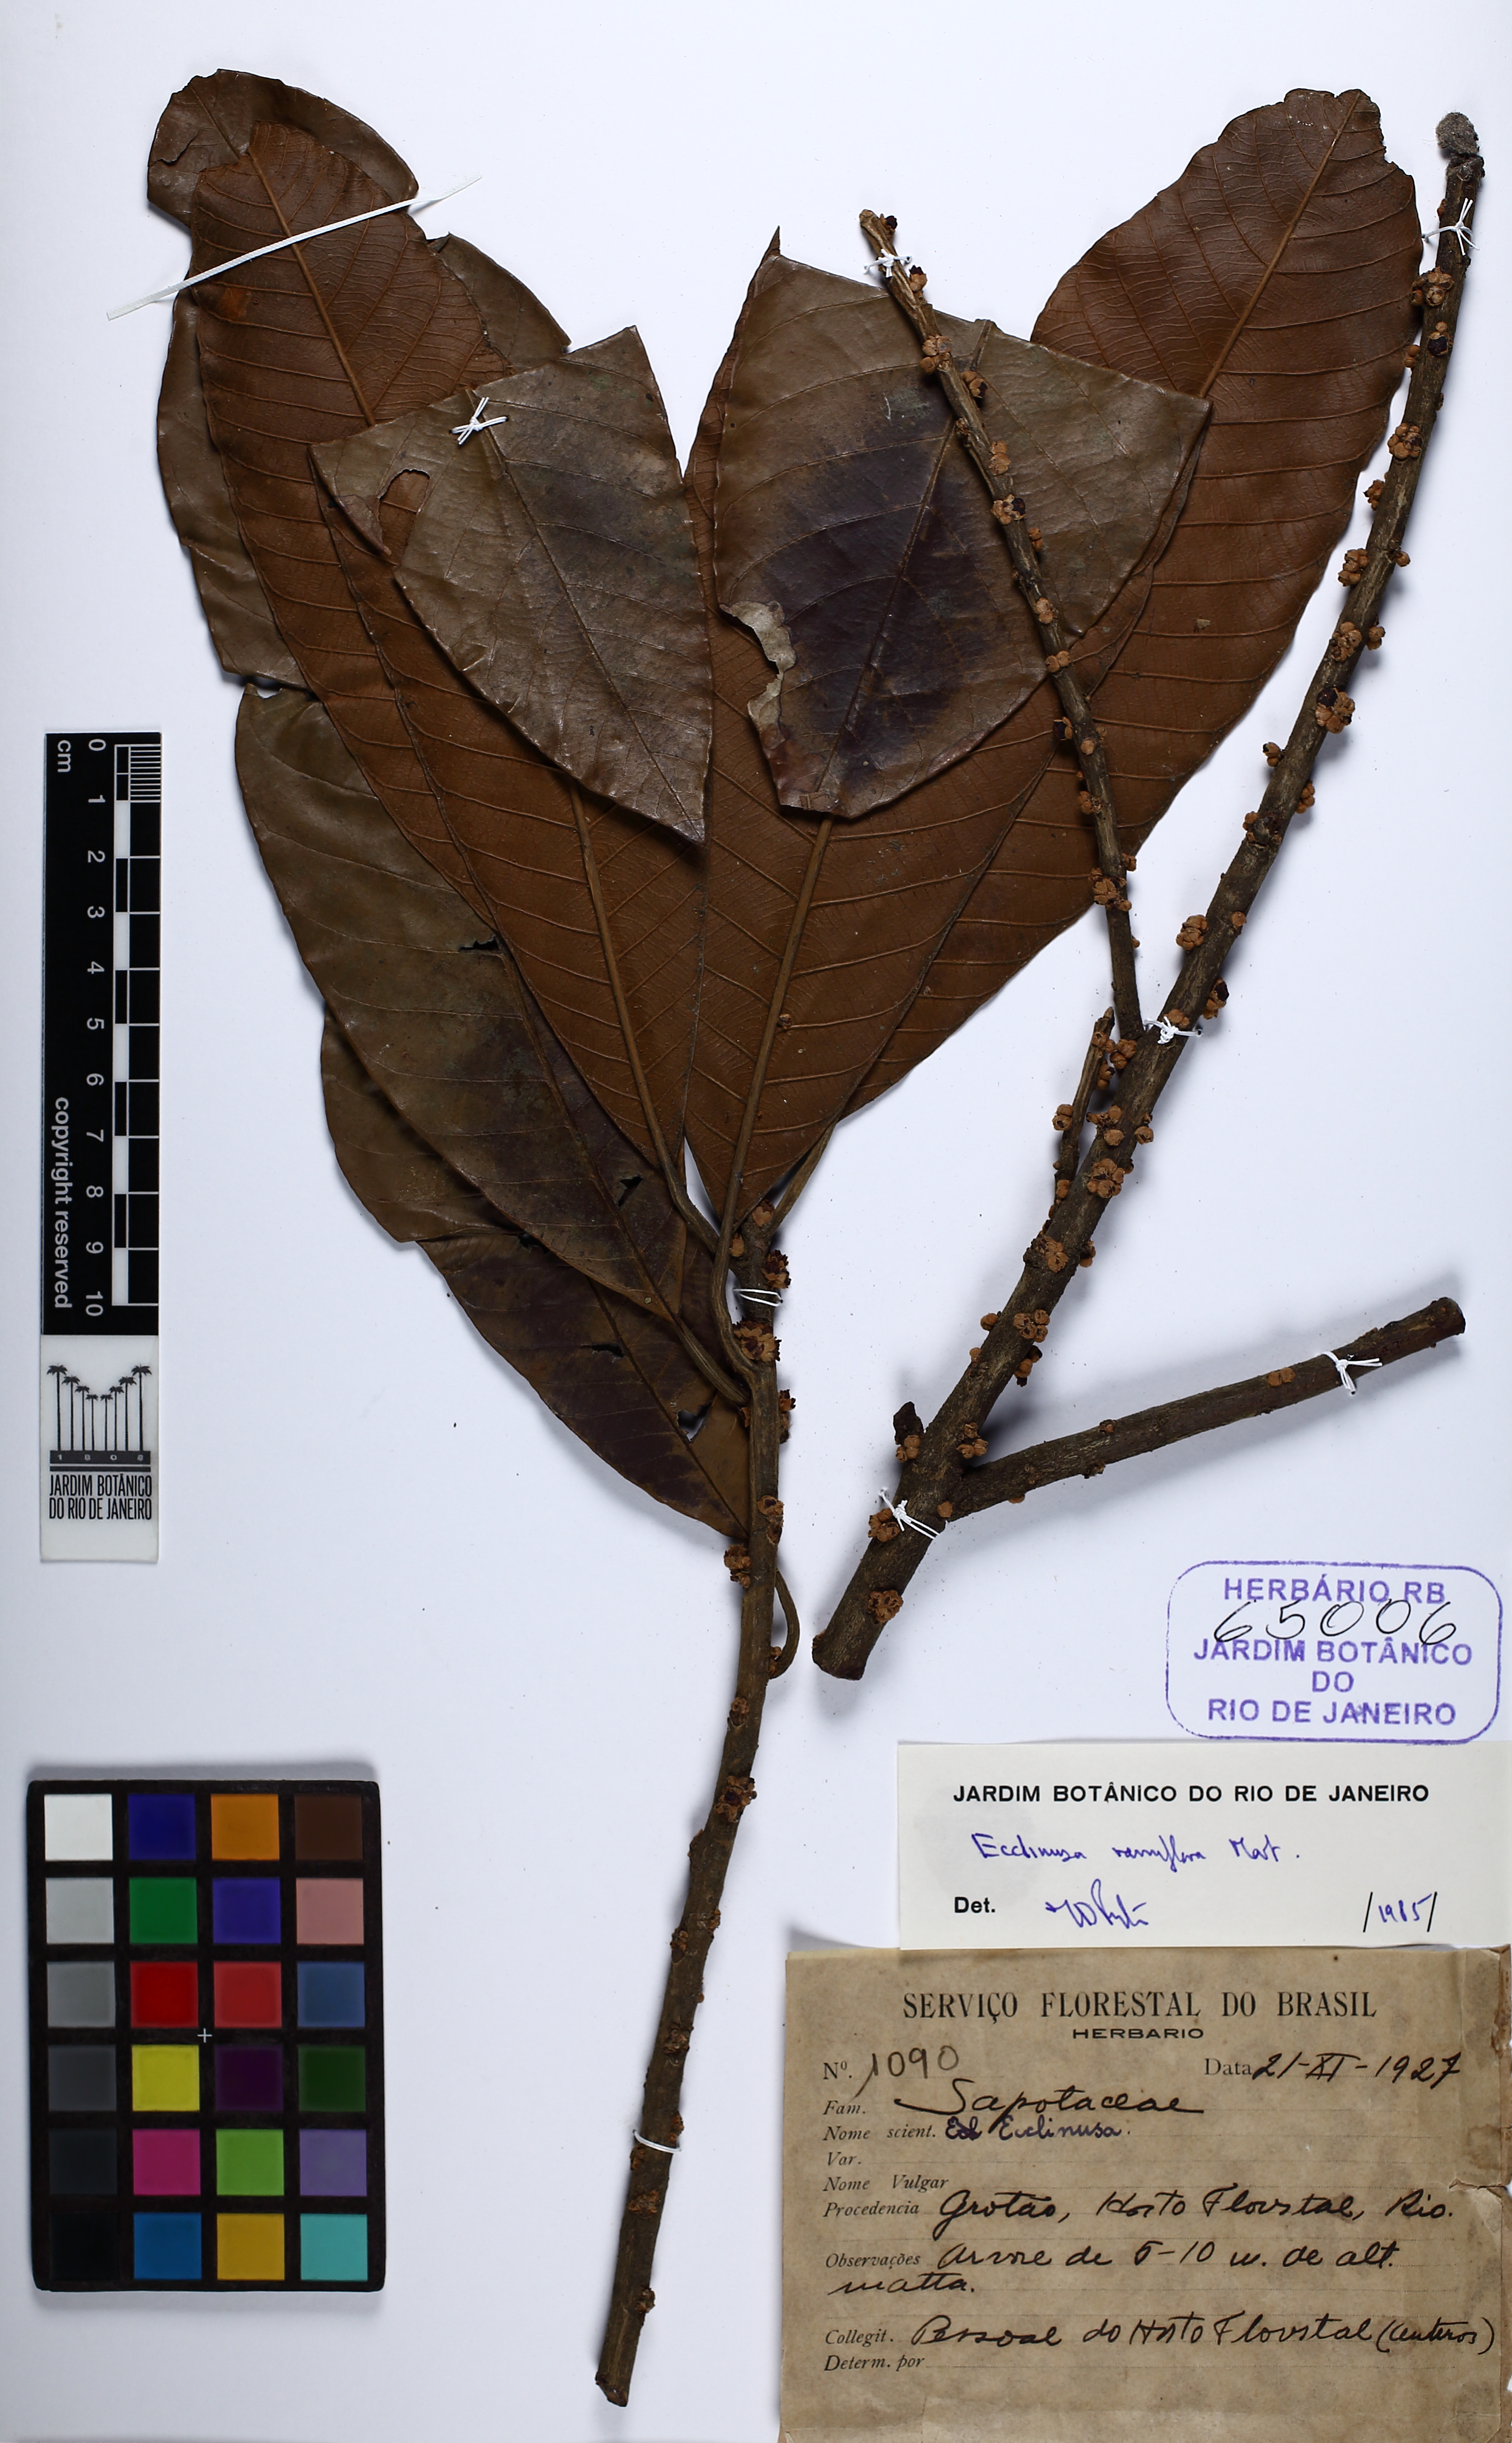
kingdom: Plantae
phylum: Tracheophyta
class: Magnoliopsida
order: Ericales
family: Sapotaceae
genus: Ecclinusa
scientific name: Ecclinusa ramiflora
